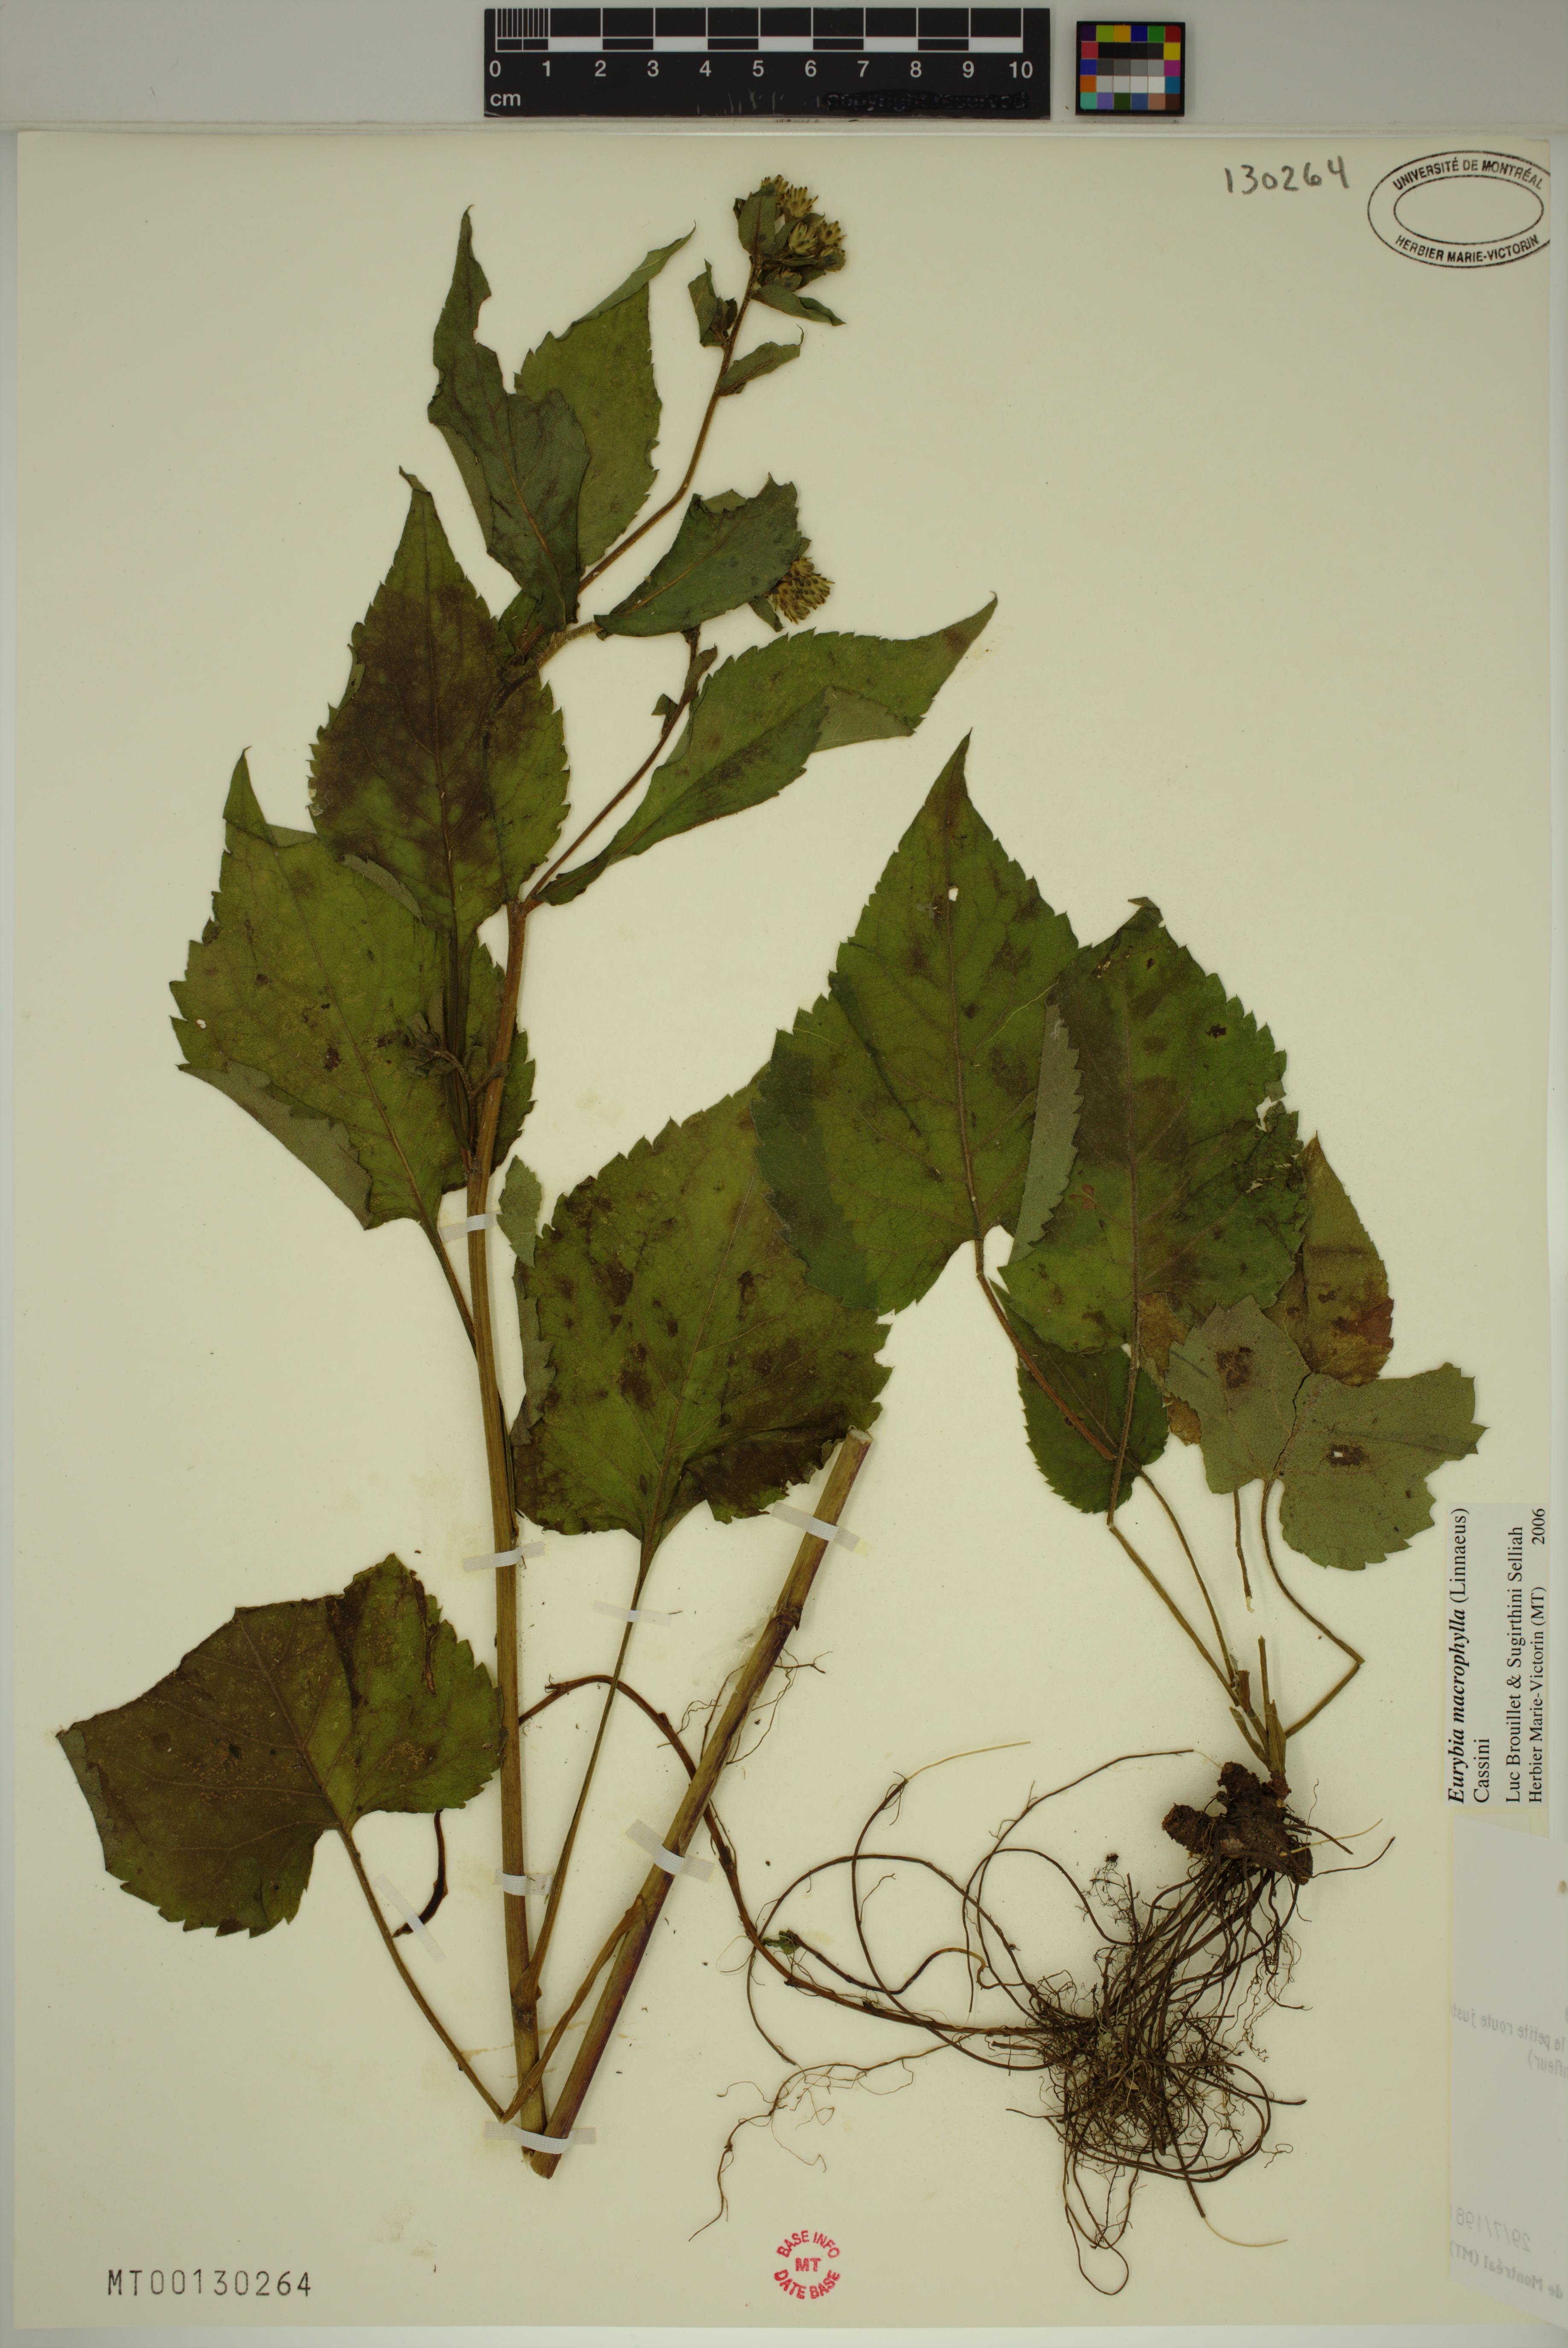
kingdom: Plantae
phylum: Tracheophyta
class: Magnoliopsida
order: Asterales
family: Asteraceae
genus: Eurybia
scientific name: Eurybia macrophylla
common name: Big-leaved aster
